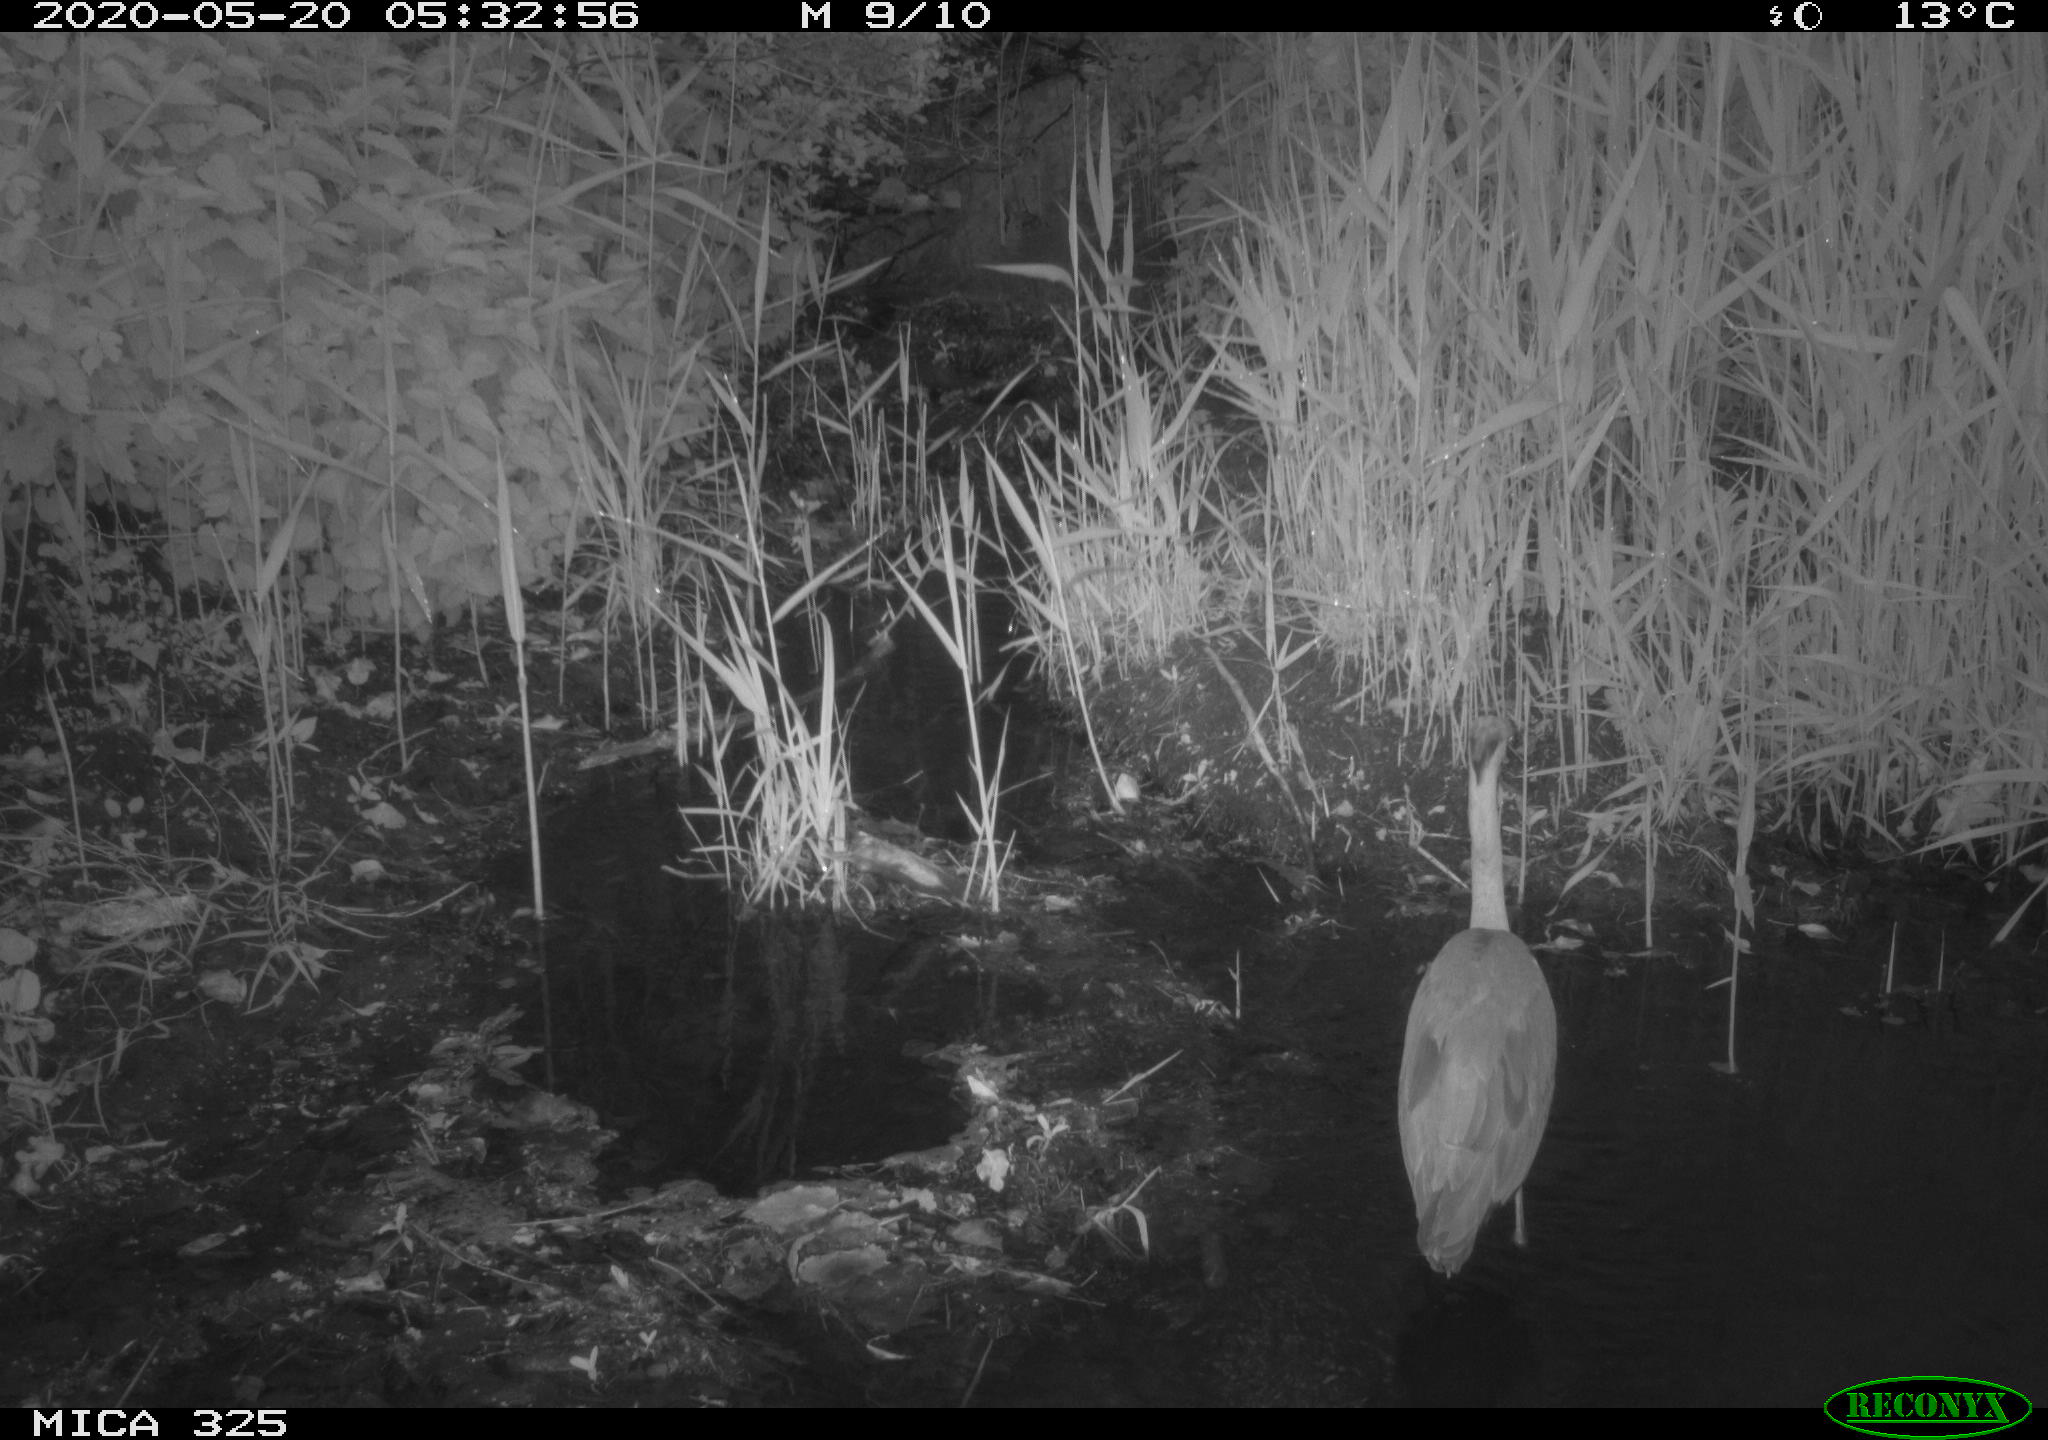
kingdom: Animalia
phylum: Chordata
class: Aves
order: Pelecaniformes
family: Ardeidae
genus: Ardea
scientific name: Ardea cinerea
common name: Grey heron
